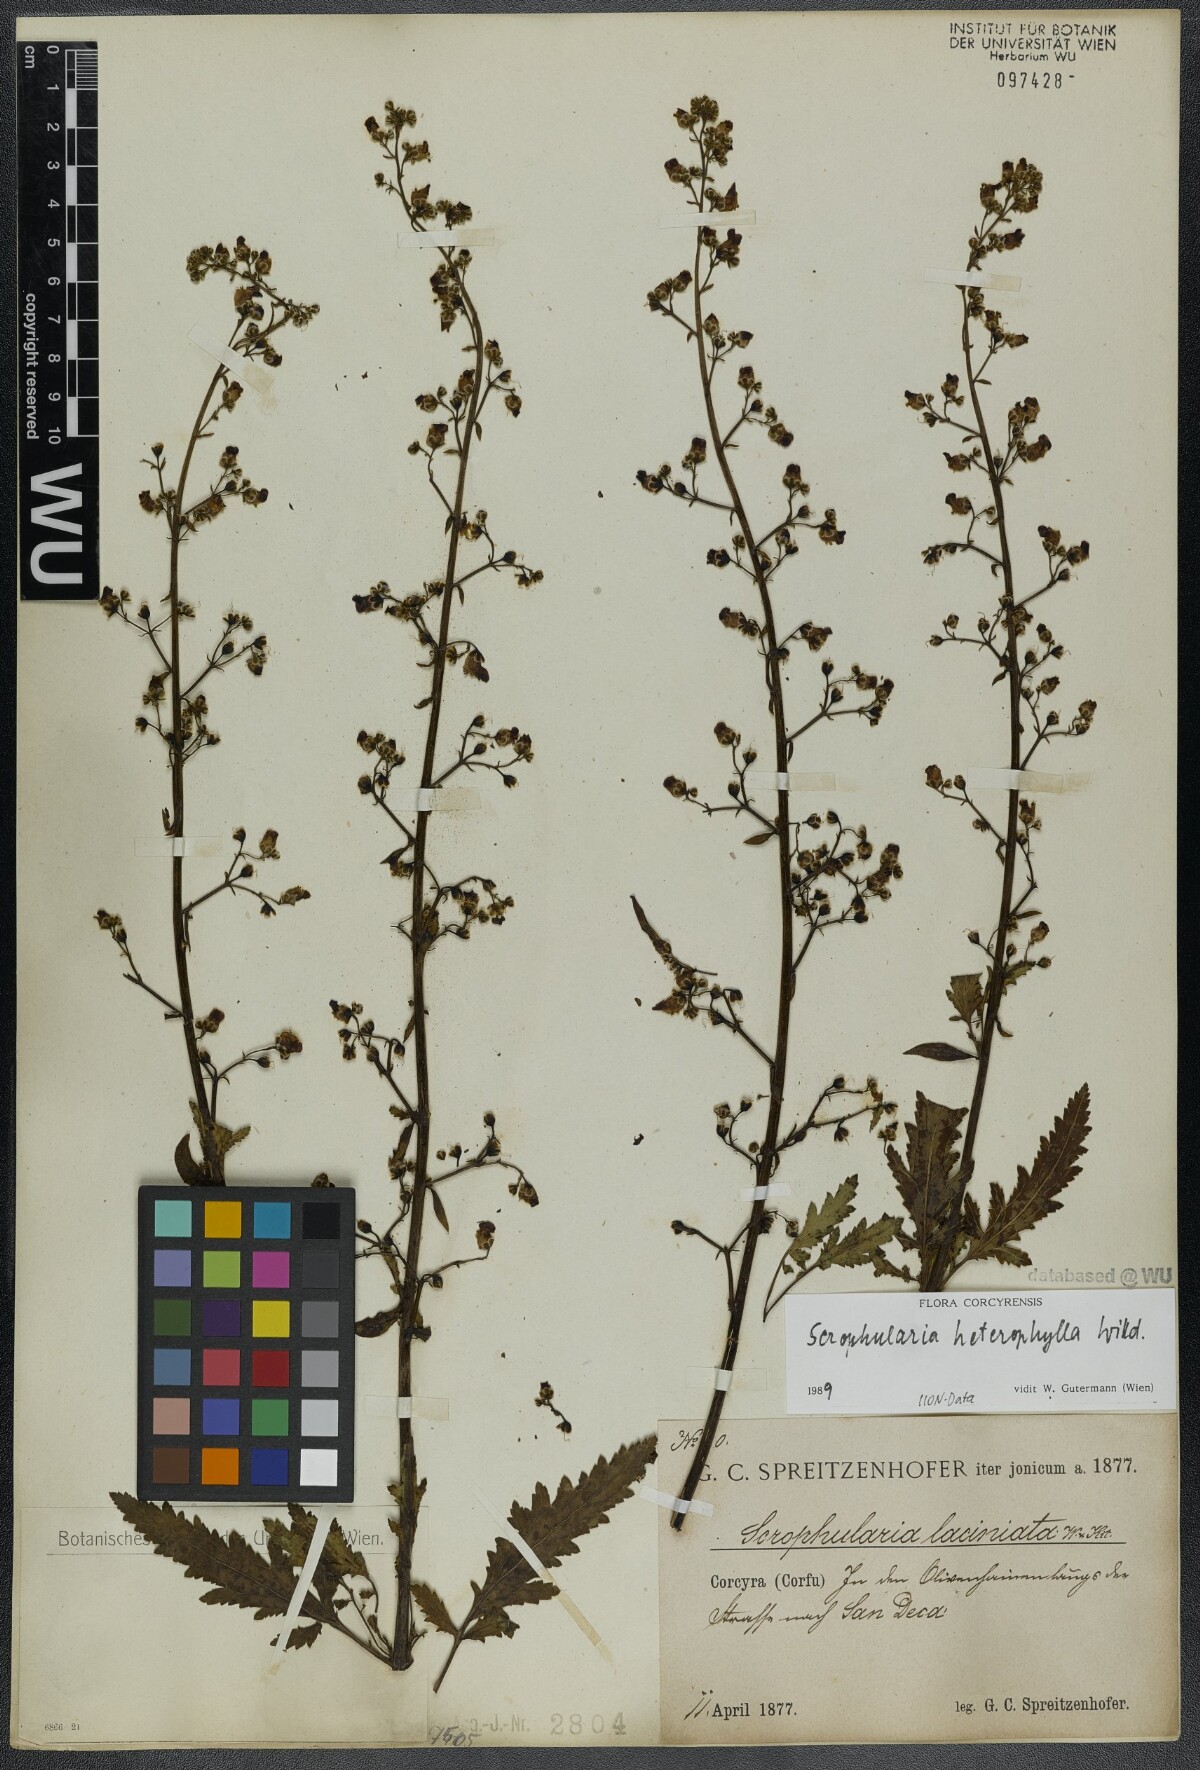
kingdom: Plantae
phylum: Tracheophyta
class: Magnoliopsida
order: Lamiales
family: Scrophulariaceae
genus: Scrophularia
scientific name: Scrophularia heterophylla
